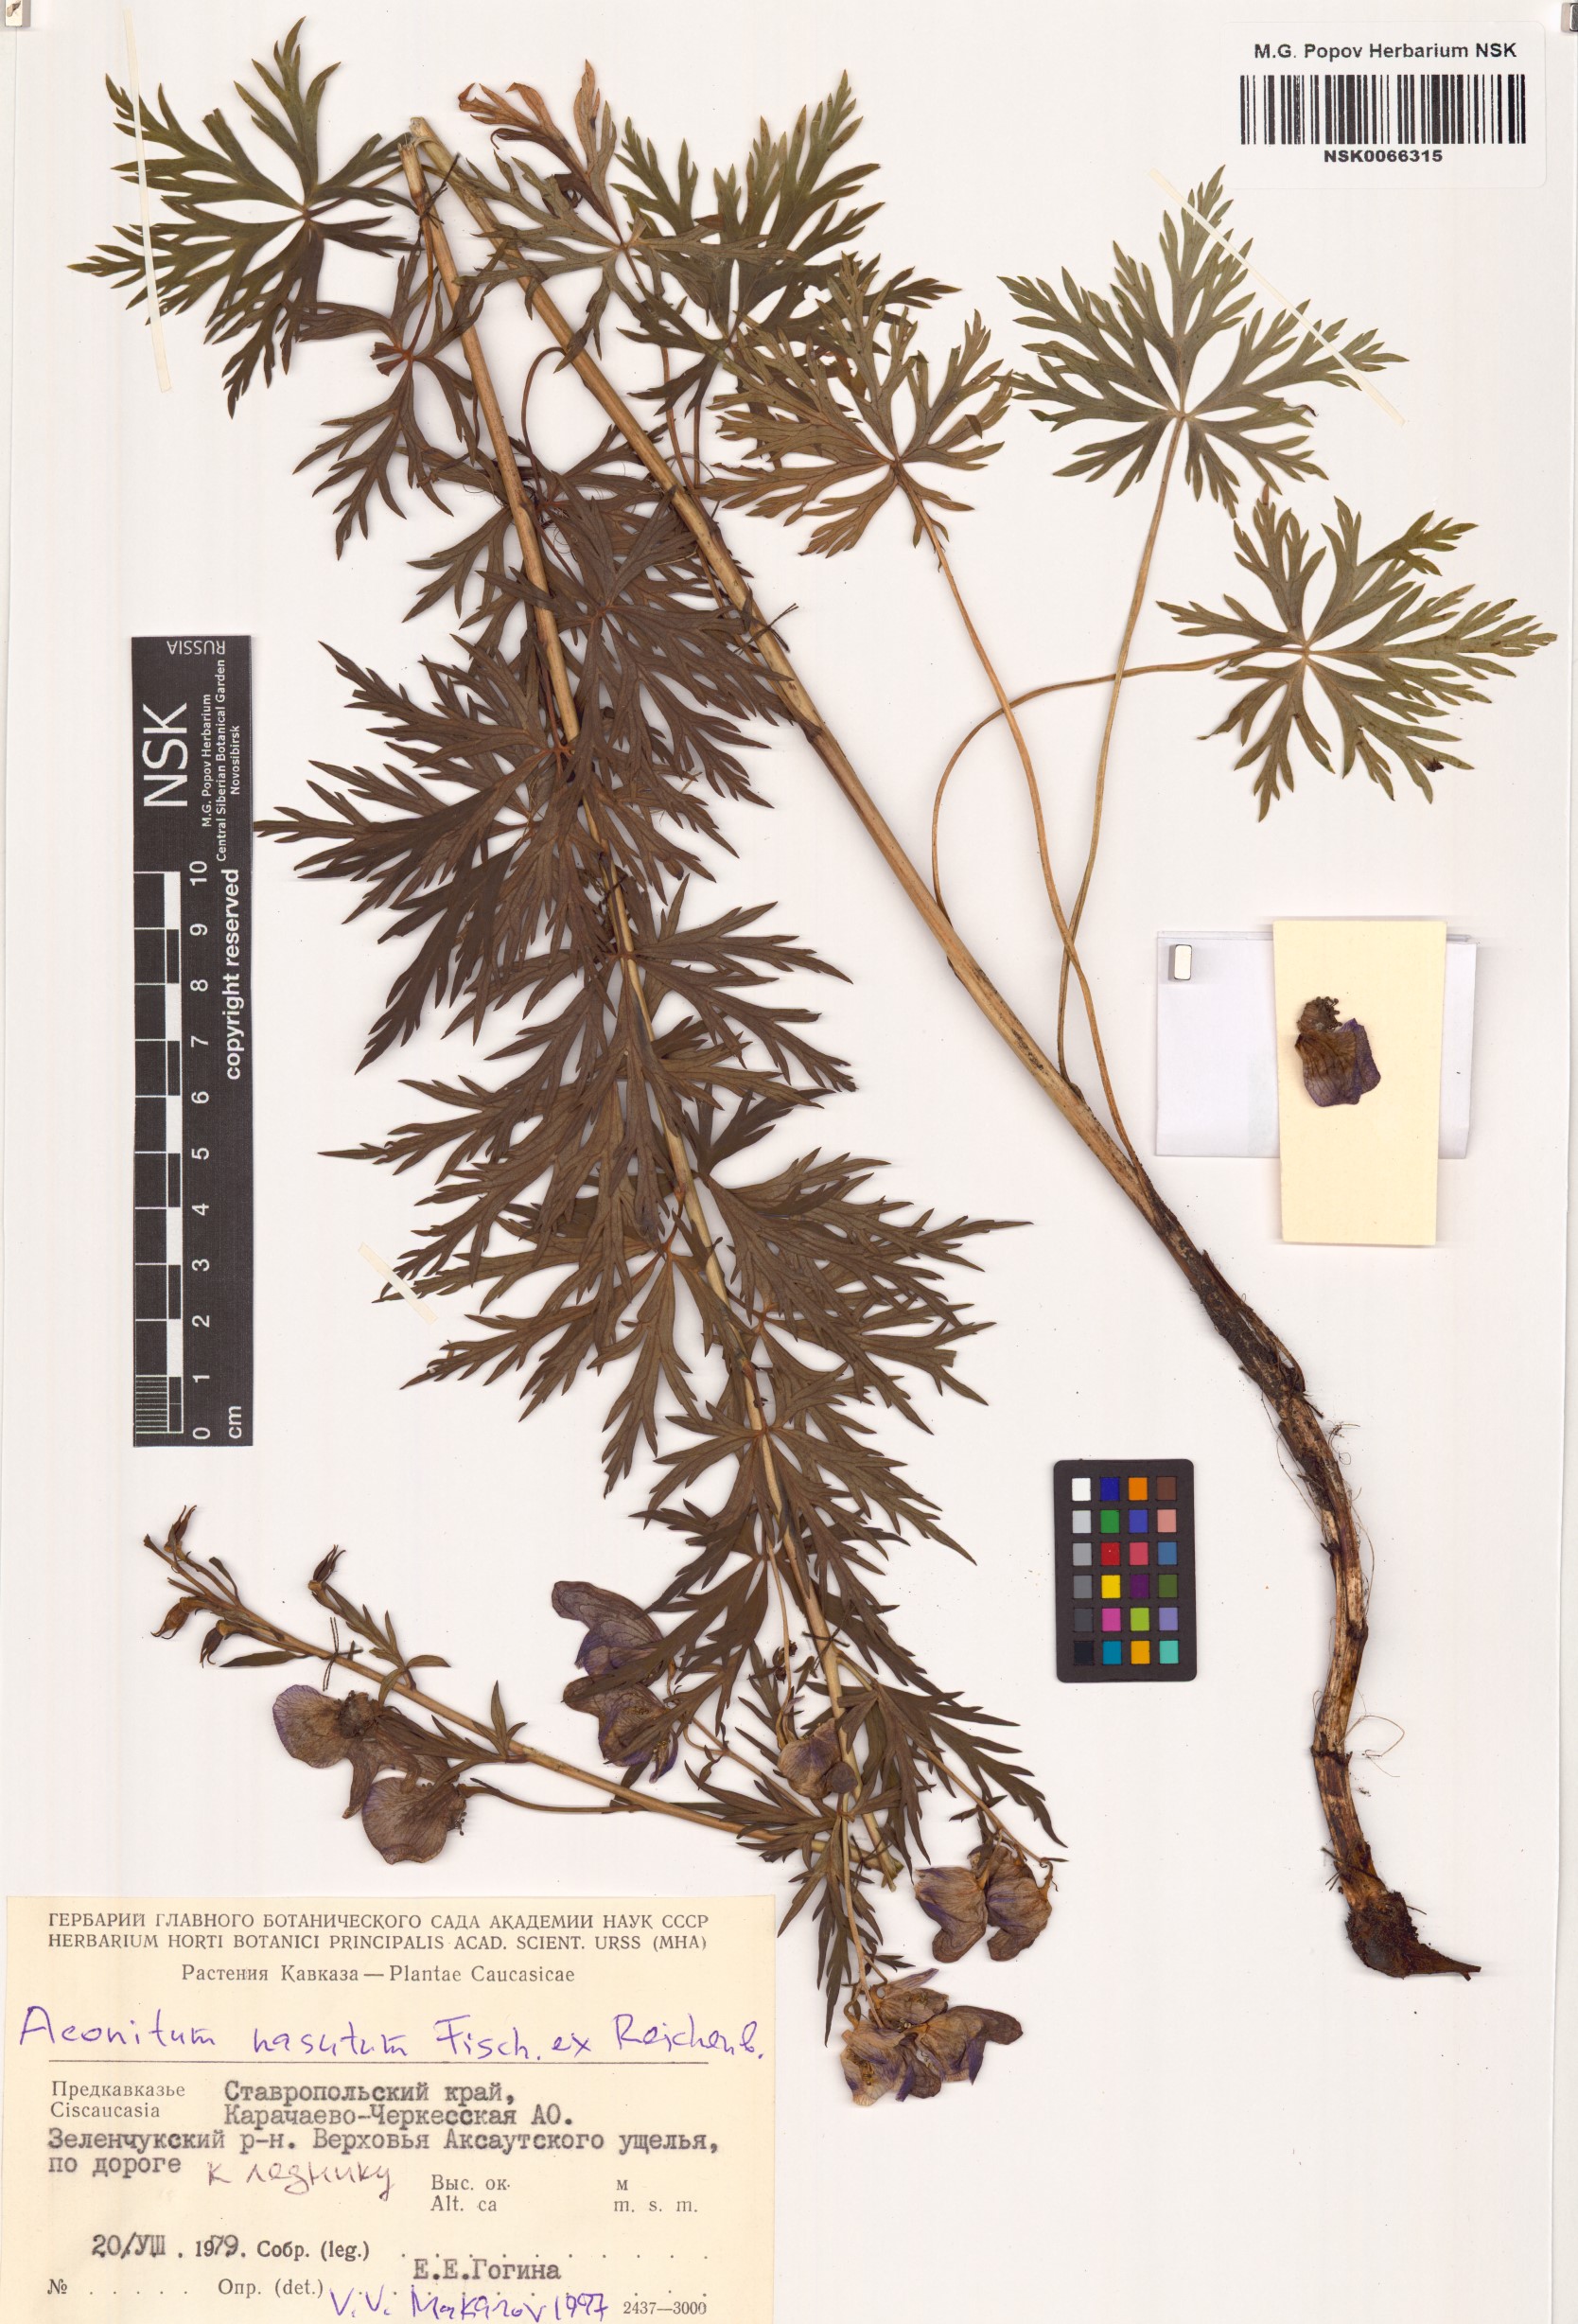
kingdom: Plantae
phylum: Tracheophyta
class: Magnoliopsida
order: Ranunculales
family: Ranunculaceae
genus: Aconitum
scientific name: Aconitum variegatum
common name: Manchurian monkshood
